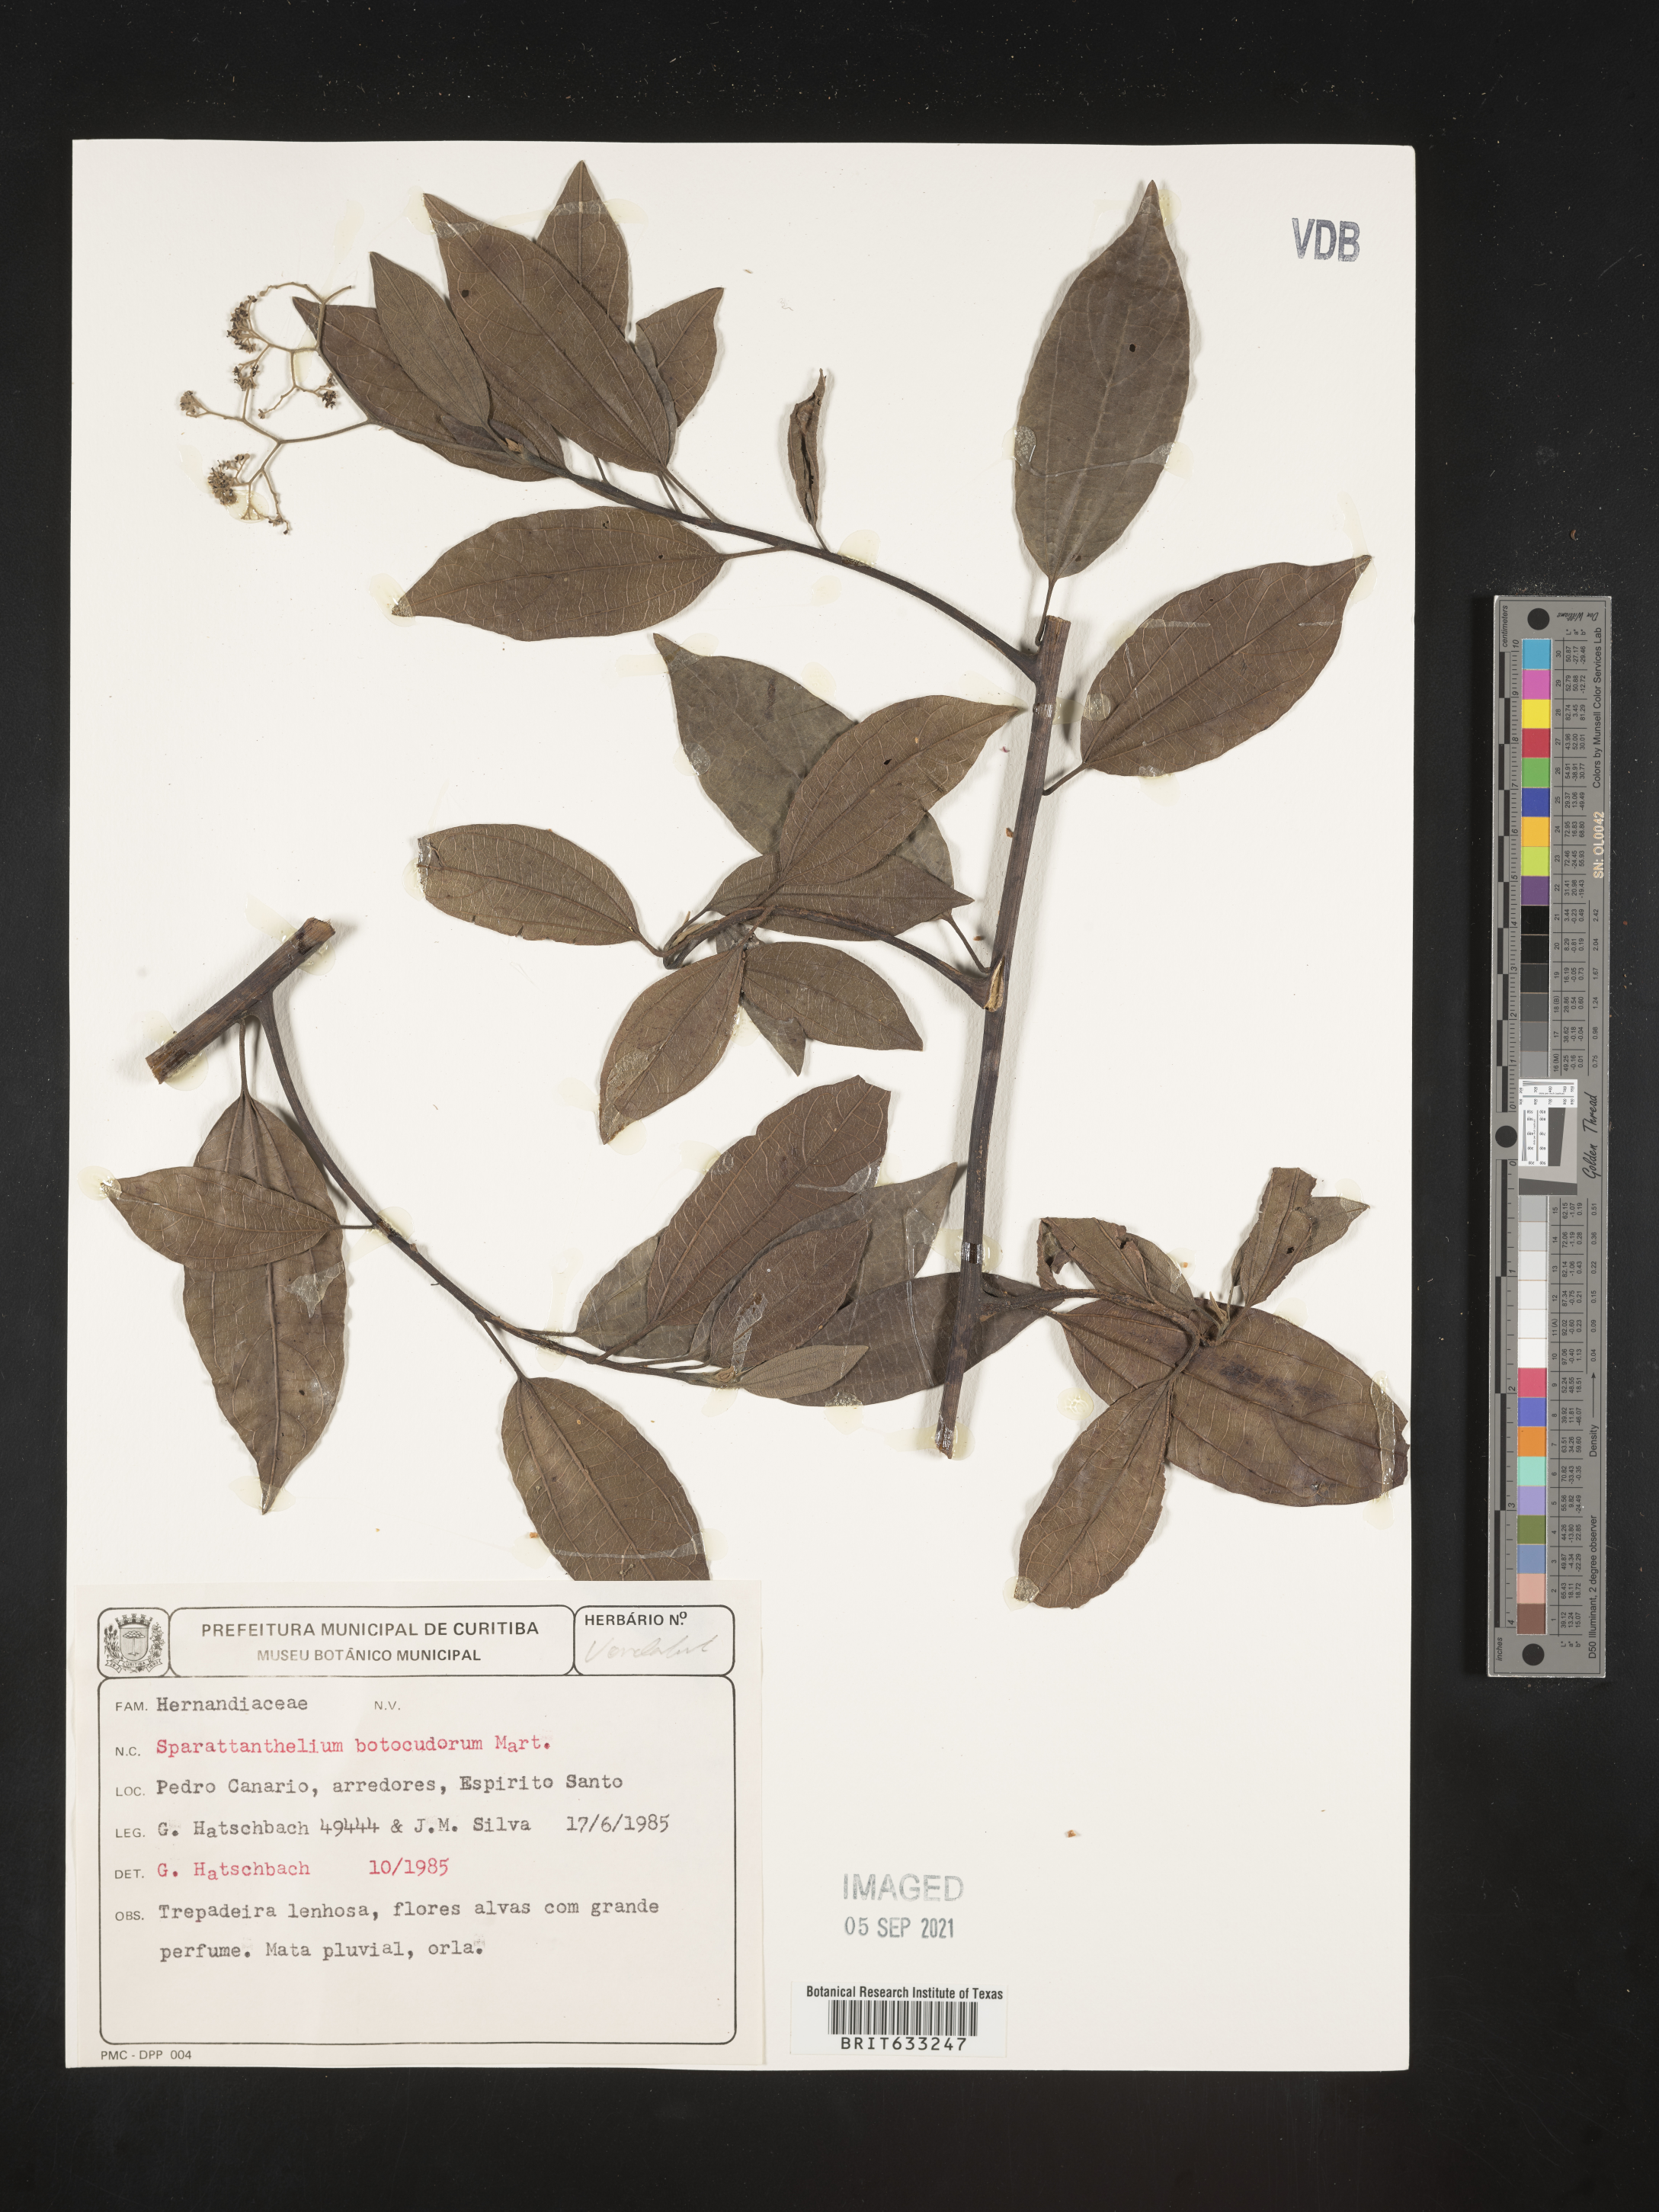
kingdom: Plantae
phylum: Tracheophyta
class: Magnoliopsida
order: Laurales
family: Hernandiaceae
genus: Sparattanthelium
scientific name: Sparattanthelium
